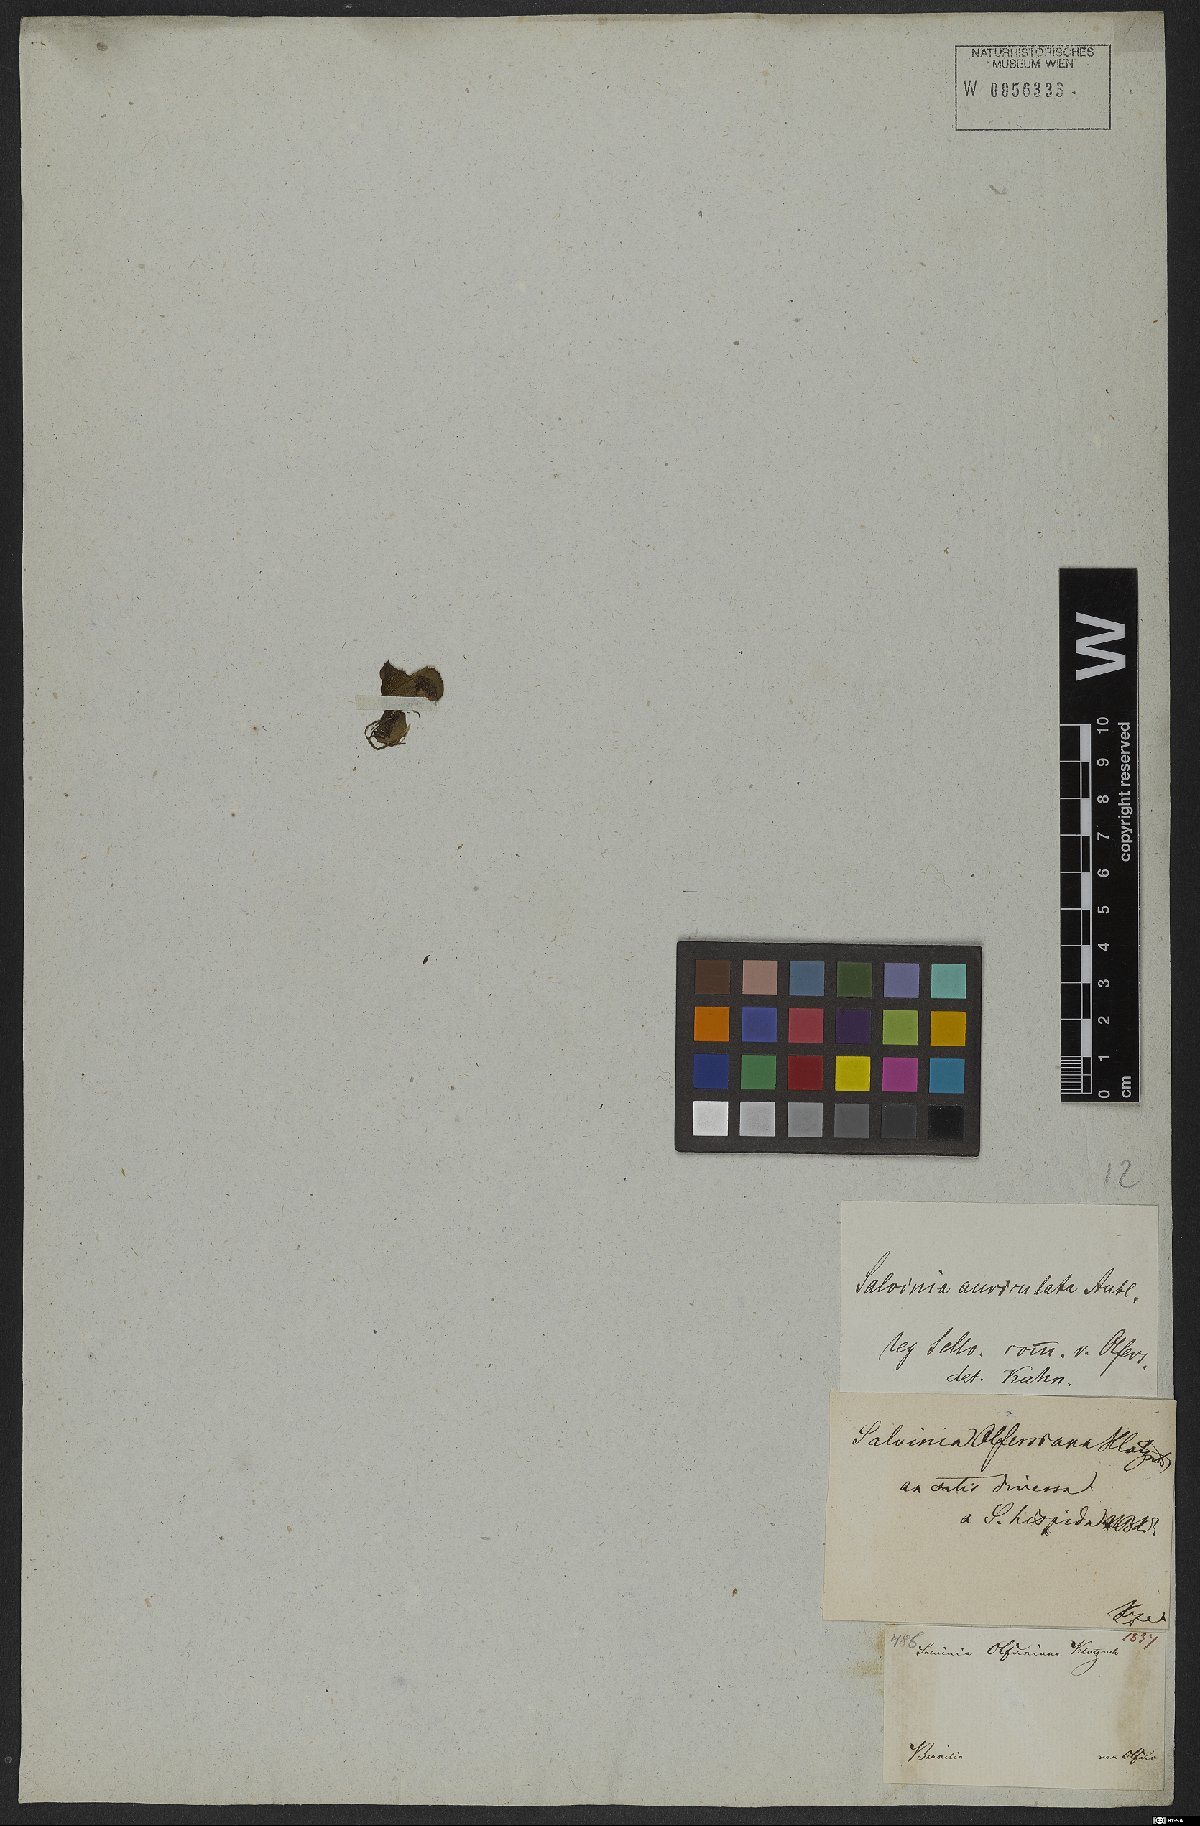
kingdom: Plantae
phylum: Tracheophyta
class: Polypodiopsida
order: Salviniales
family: Salviniaceae
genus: Salvinia
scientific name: Salvinia auriculata
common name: African payal
